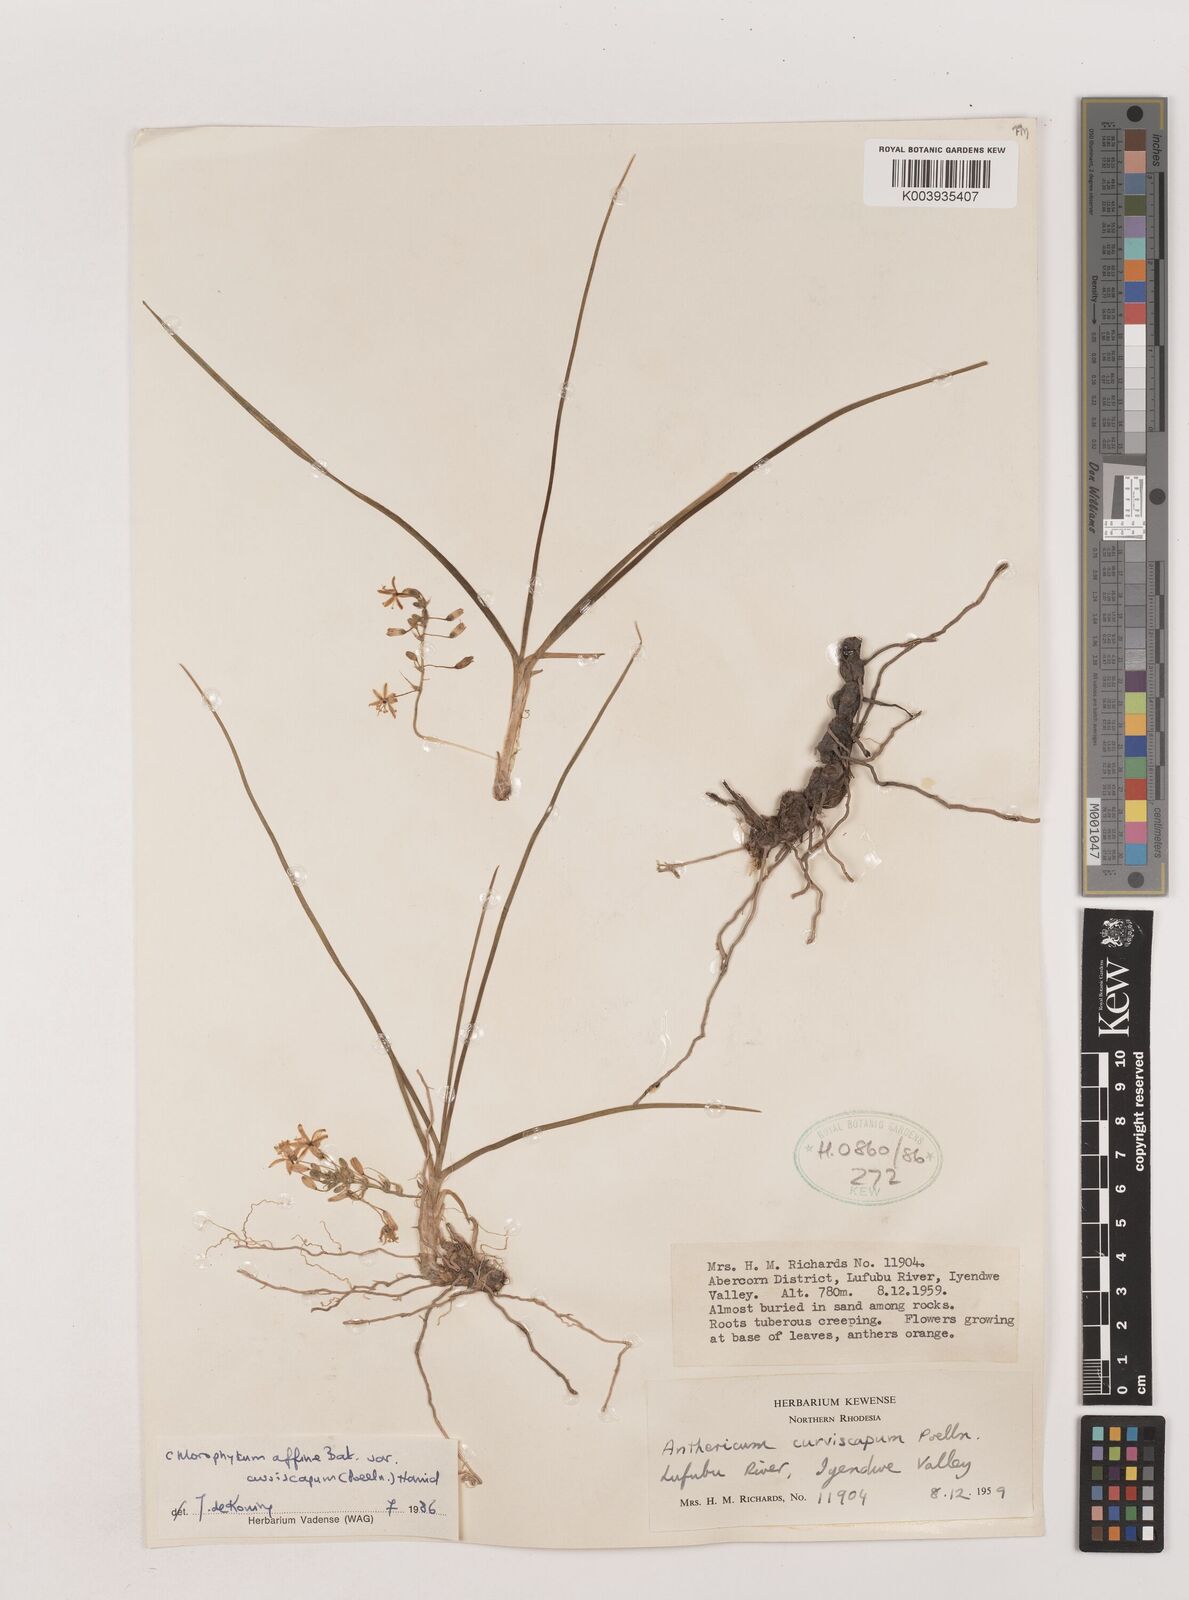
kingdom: Plantae
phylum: Tracheophyta
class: Liliopsida
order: Asparagales
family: Asparagaceae
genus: Chlorophytum
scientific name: Chlorophytum tordense
